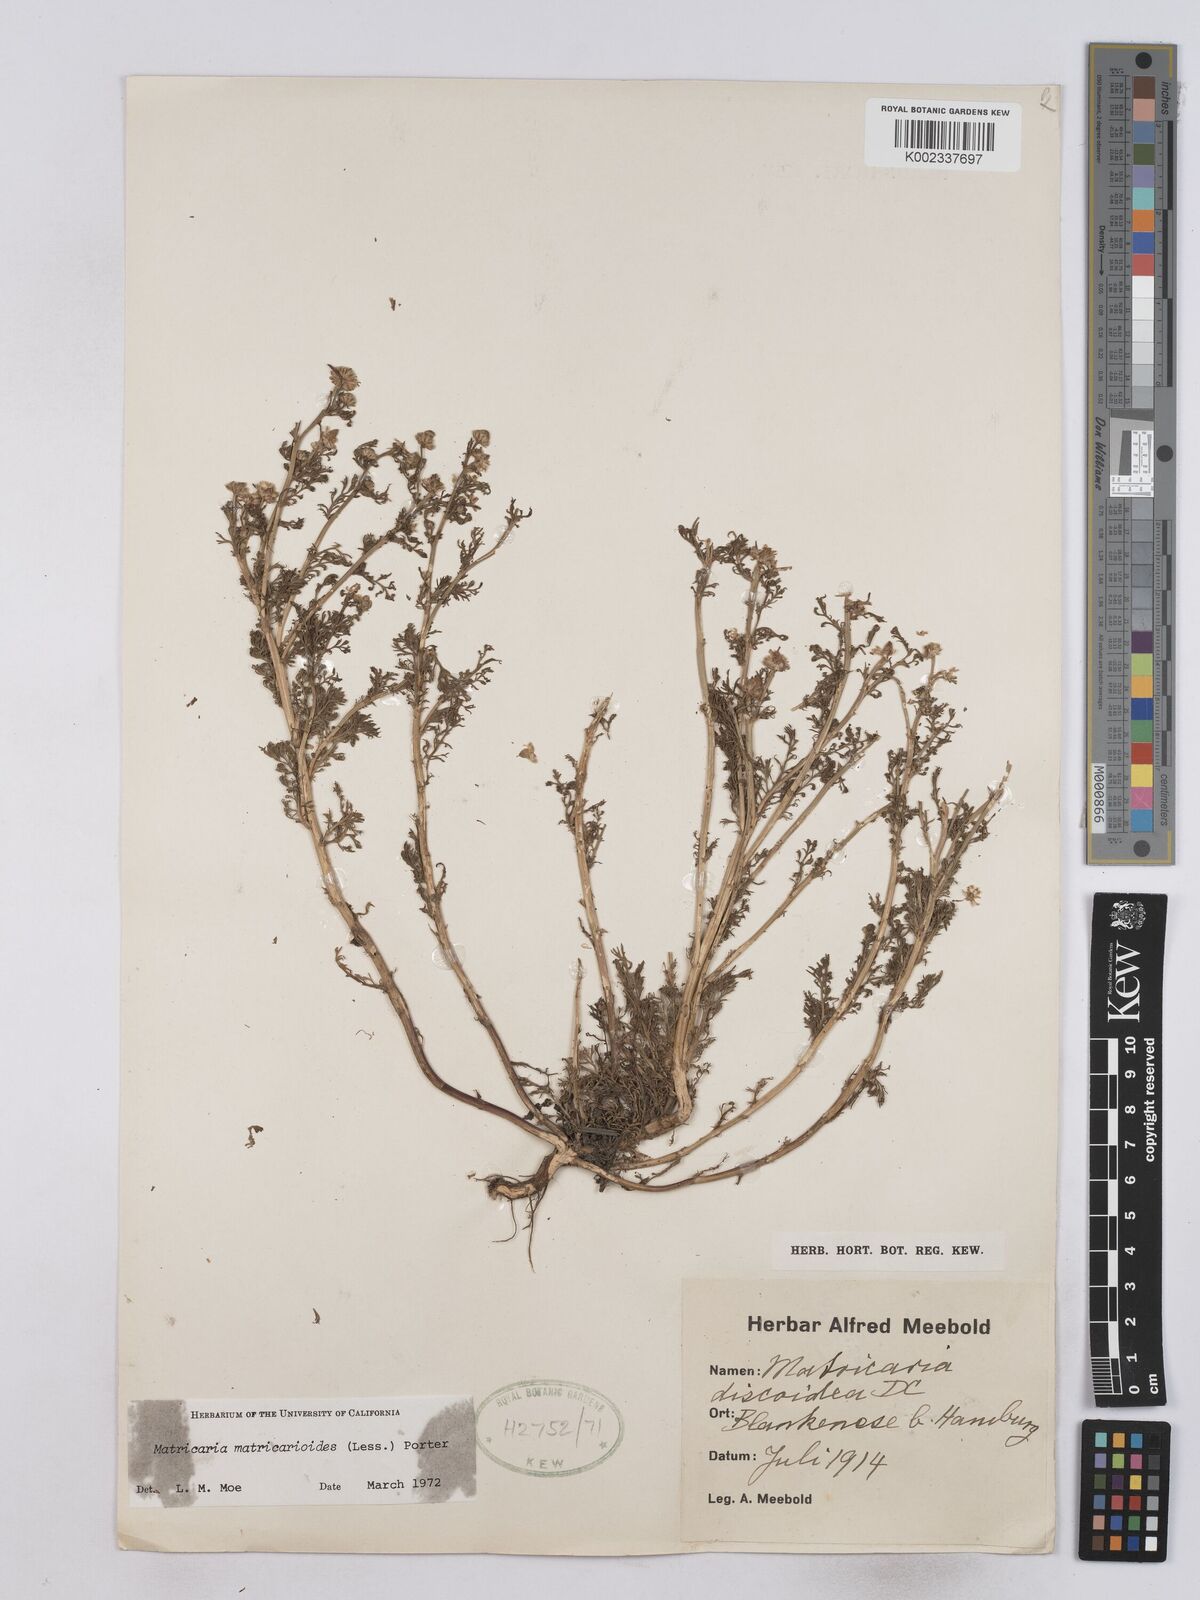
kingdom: Plantae
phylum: Tracheophyta
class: Magnoliopsida
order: Asterales
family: Asteraceae
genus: Matricaria
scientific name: Matricaria discoidea
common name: Disc mayweed
